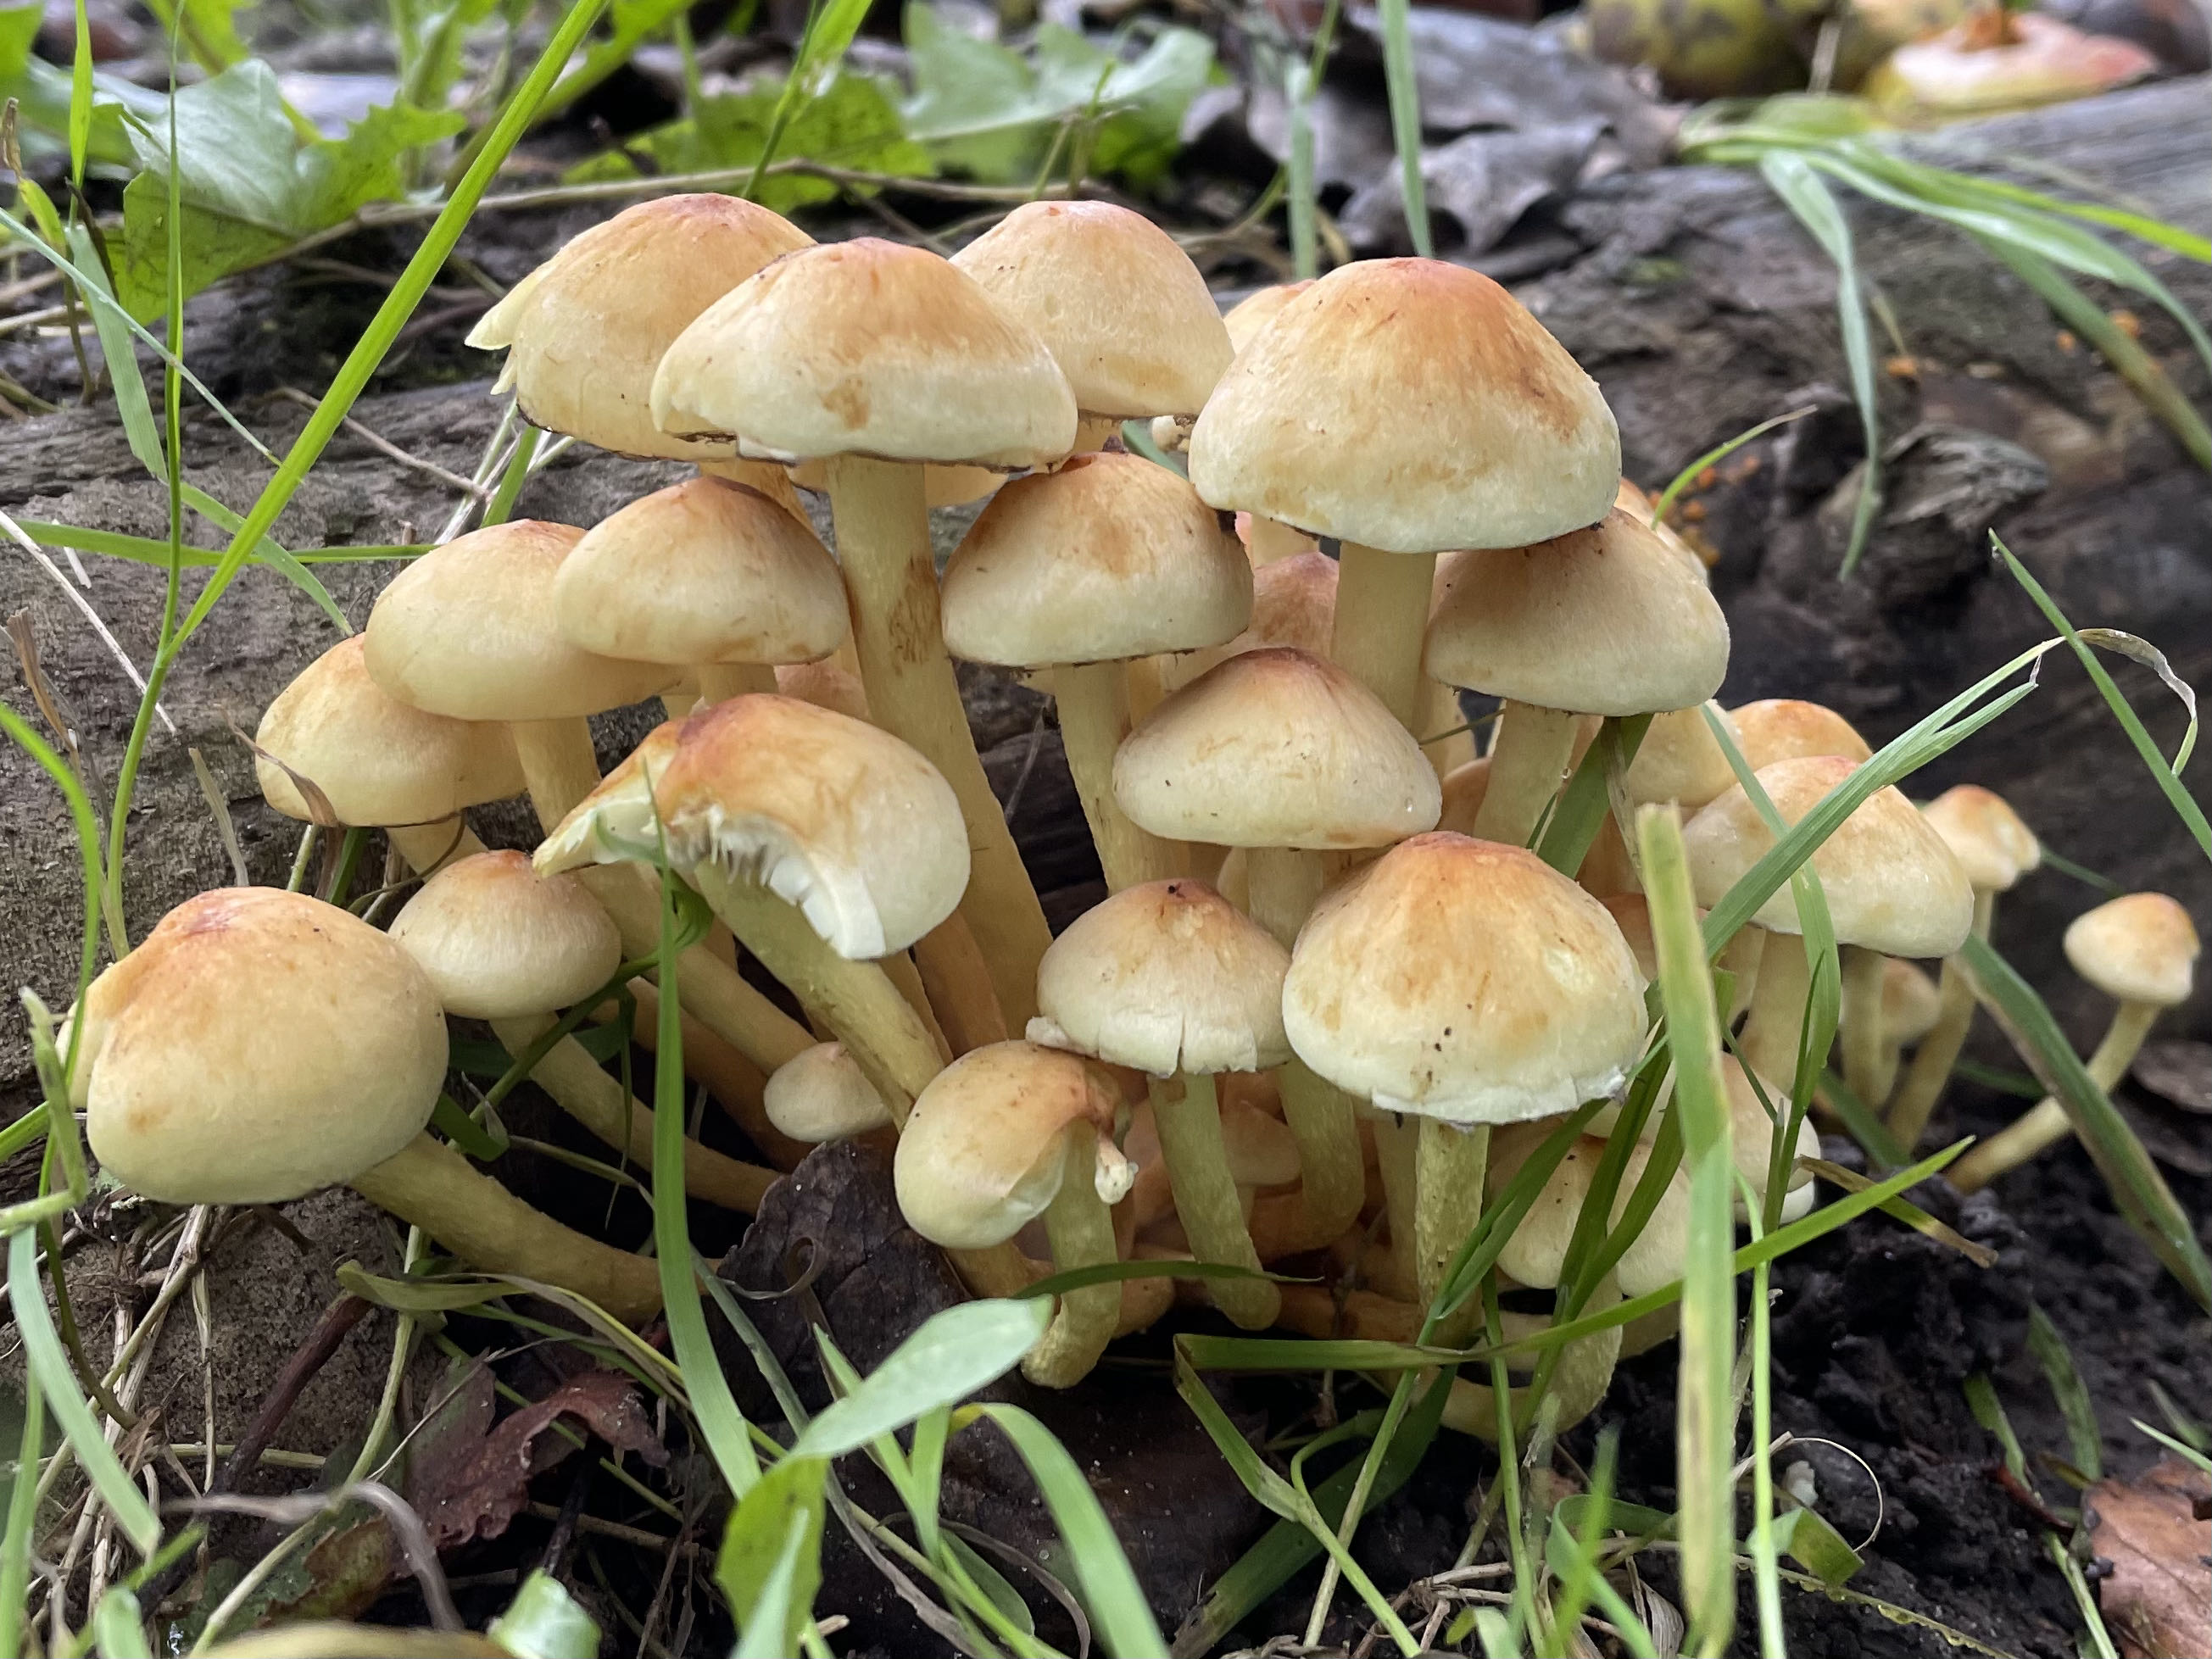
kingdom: Fungi
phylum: Basidiomycota
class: Agaricomycetes
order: Agaricales
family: Strophariaceae
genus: Hypholoma
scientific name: Hypholoma fasciculare
